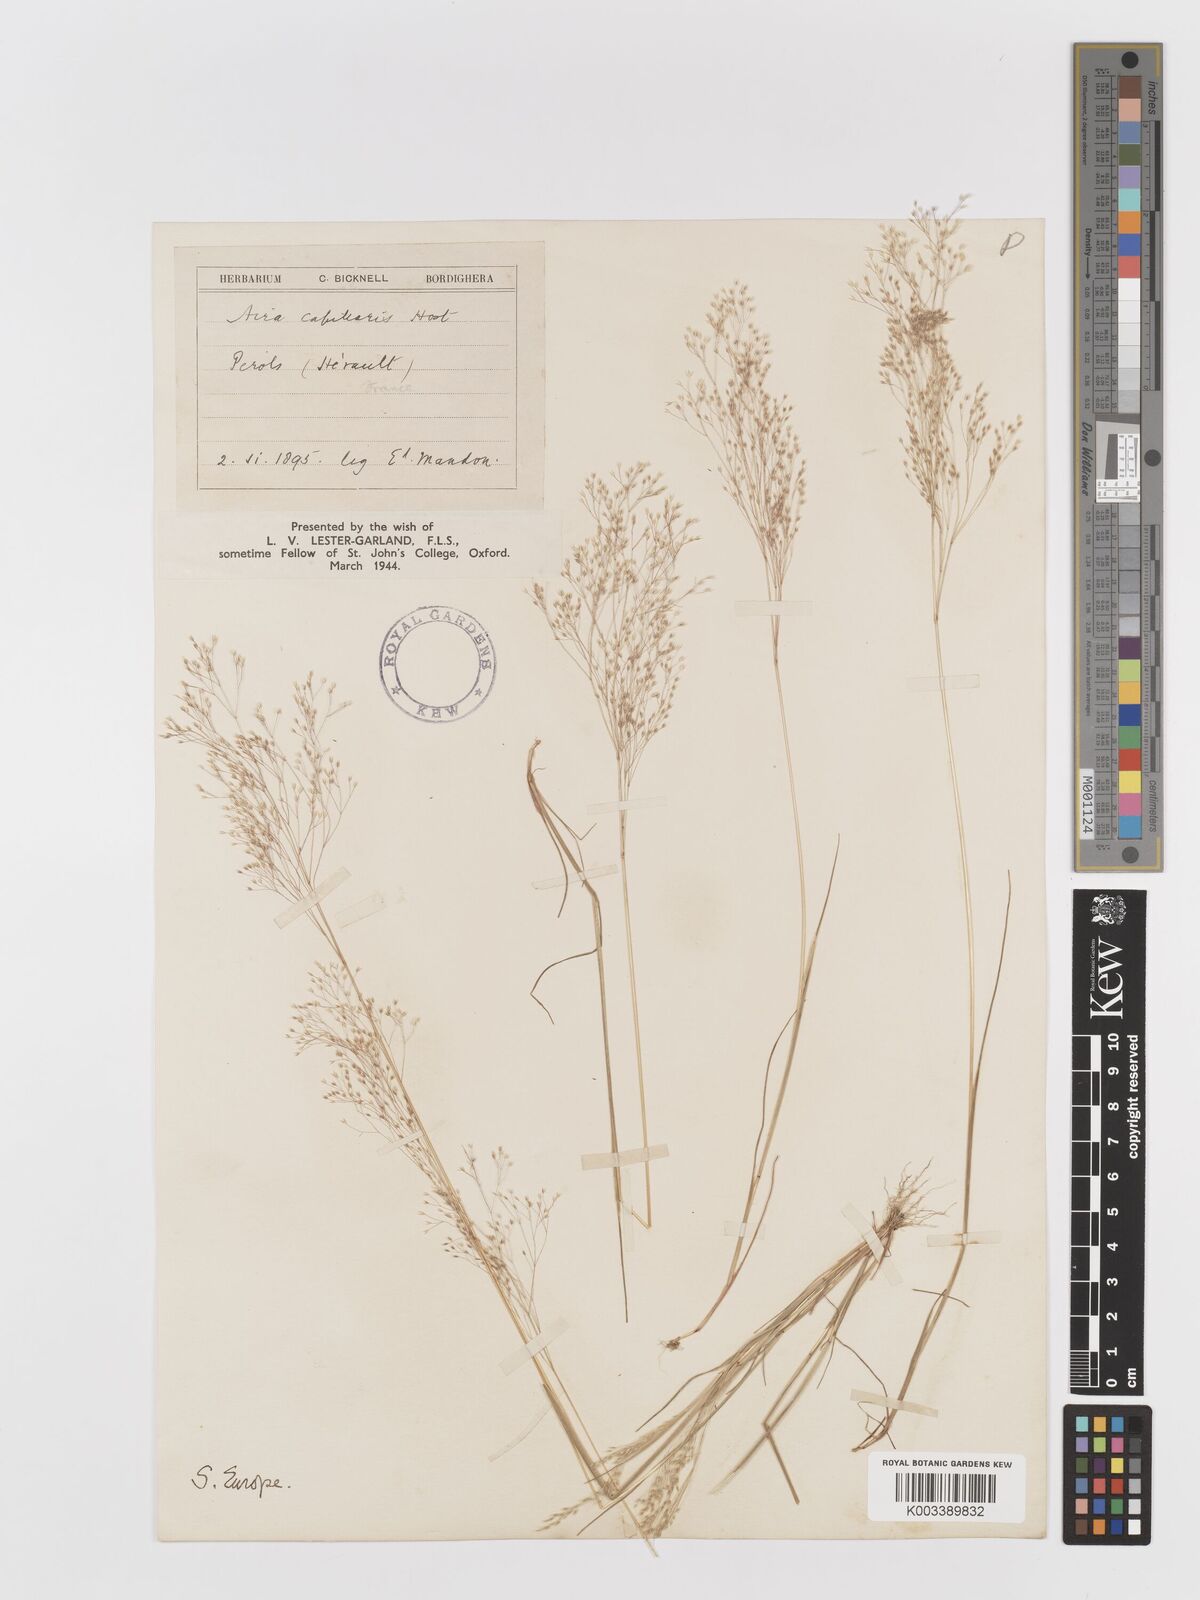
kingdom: Plantae
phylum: Tracheophyta
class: Liliopsida
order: Poales
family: Poaceae
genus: Aira
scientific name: Aira elegans
